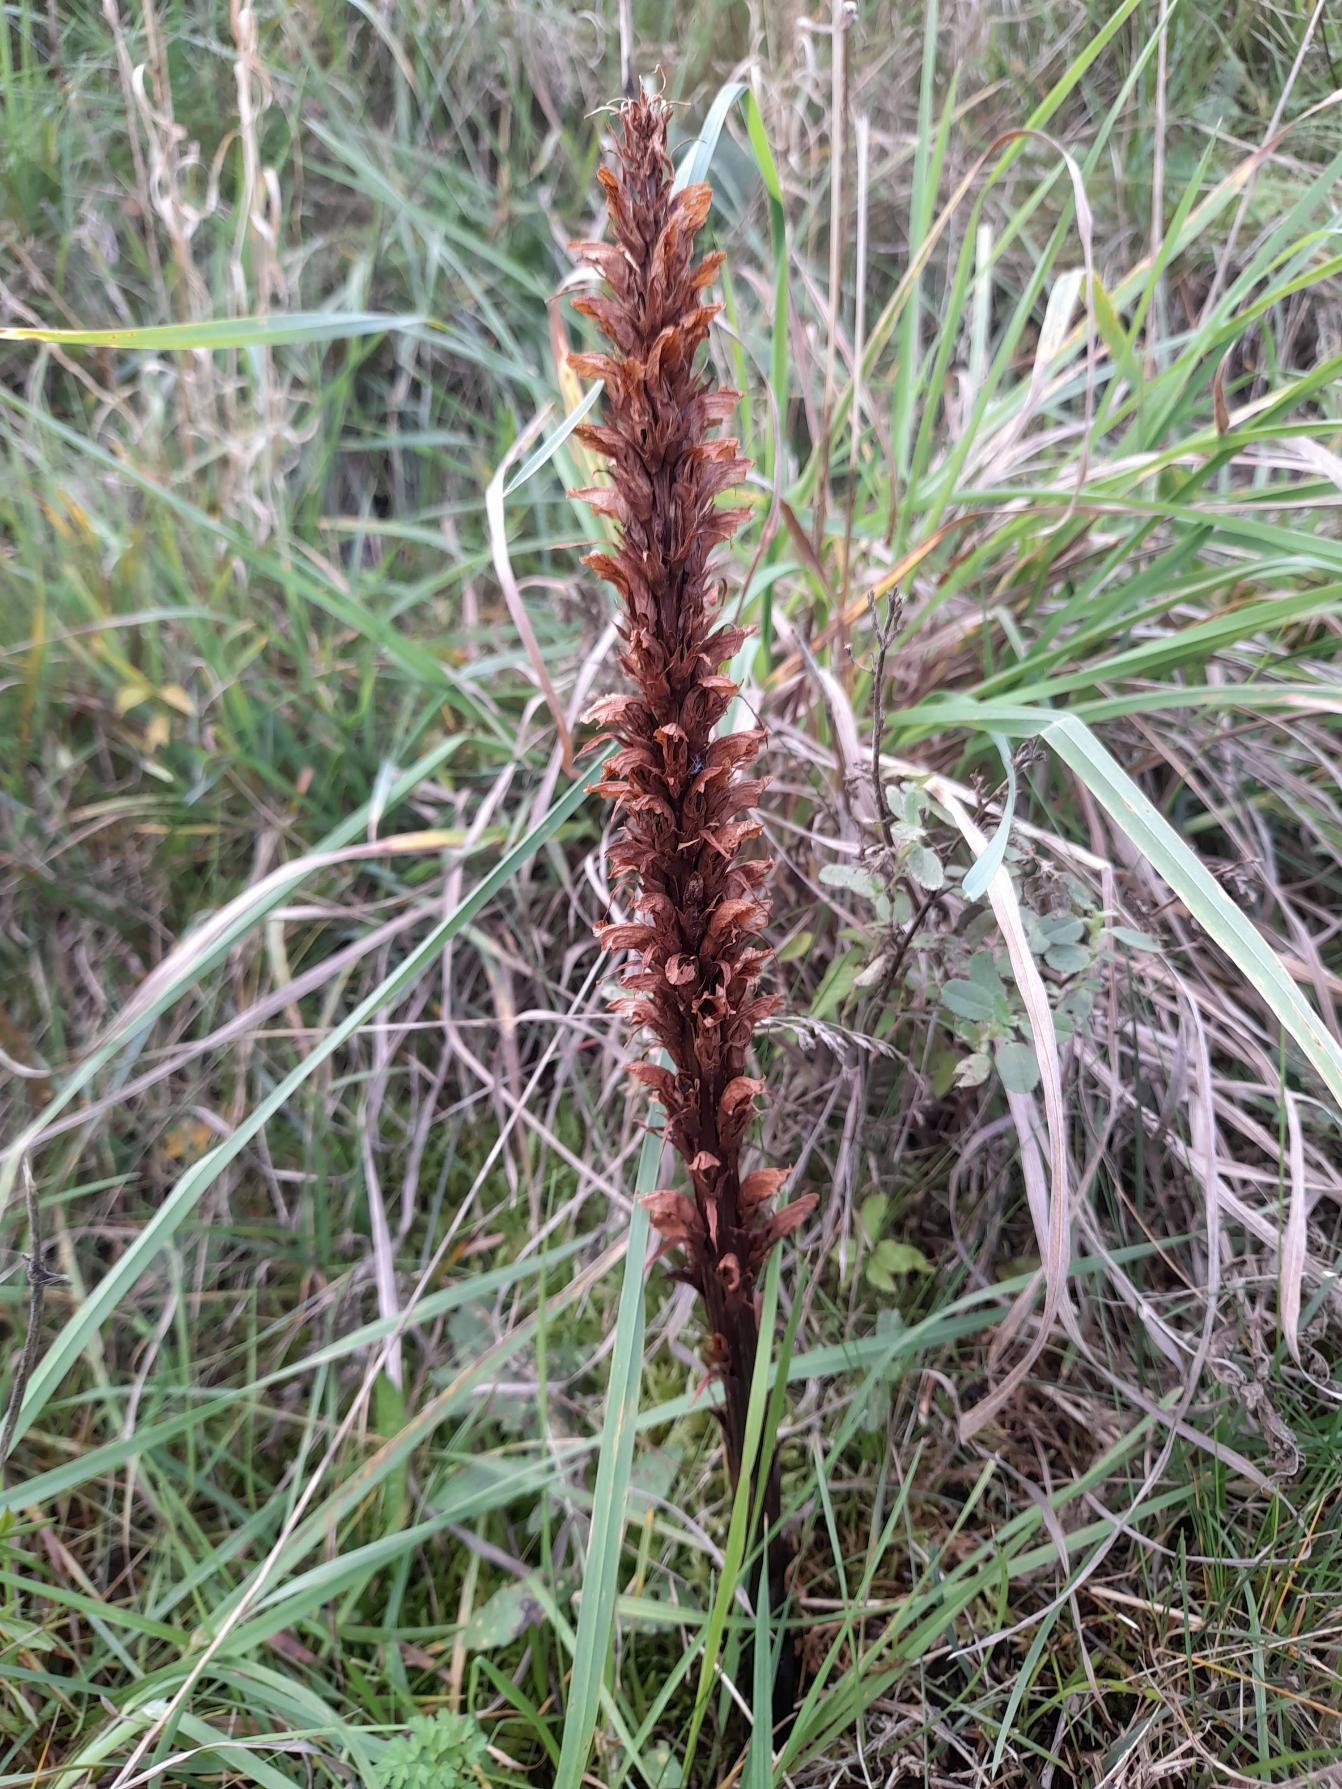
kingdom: Plantae
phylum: Tracheophyta
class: Magnoliopsida
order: Lamiales
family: Orobanchaceae
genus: Orobanche
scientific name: Orobanche elatior
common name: Stor gyvelkvæler
